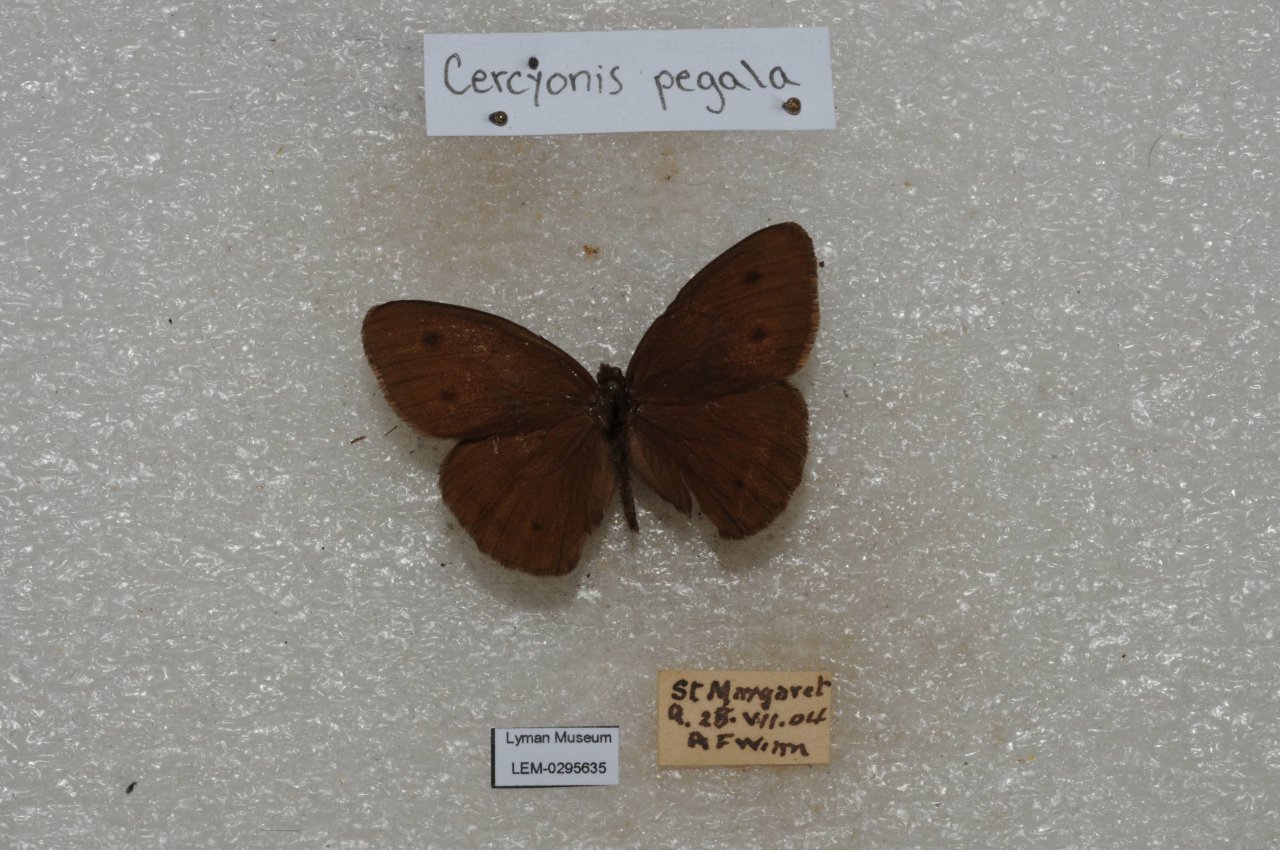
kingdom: Animalia
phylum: Arthropoda
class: Insecta
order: Lepidoptera
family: Nymphalidae
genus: Cercyonis
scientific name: Cercyonis pegala
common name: Common Wood-Nymph
